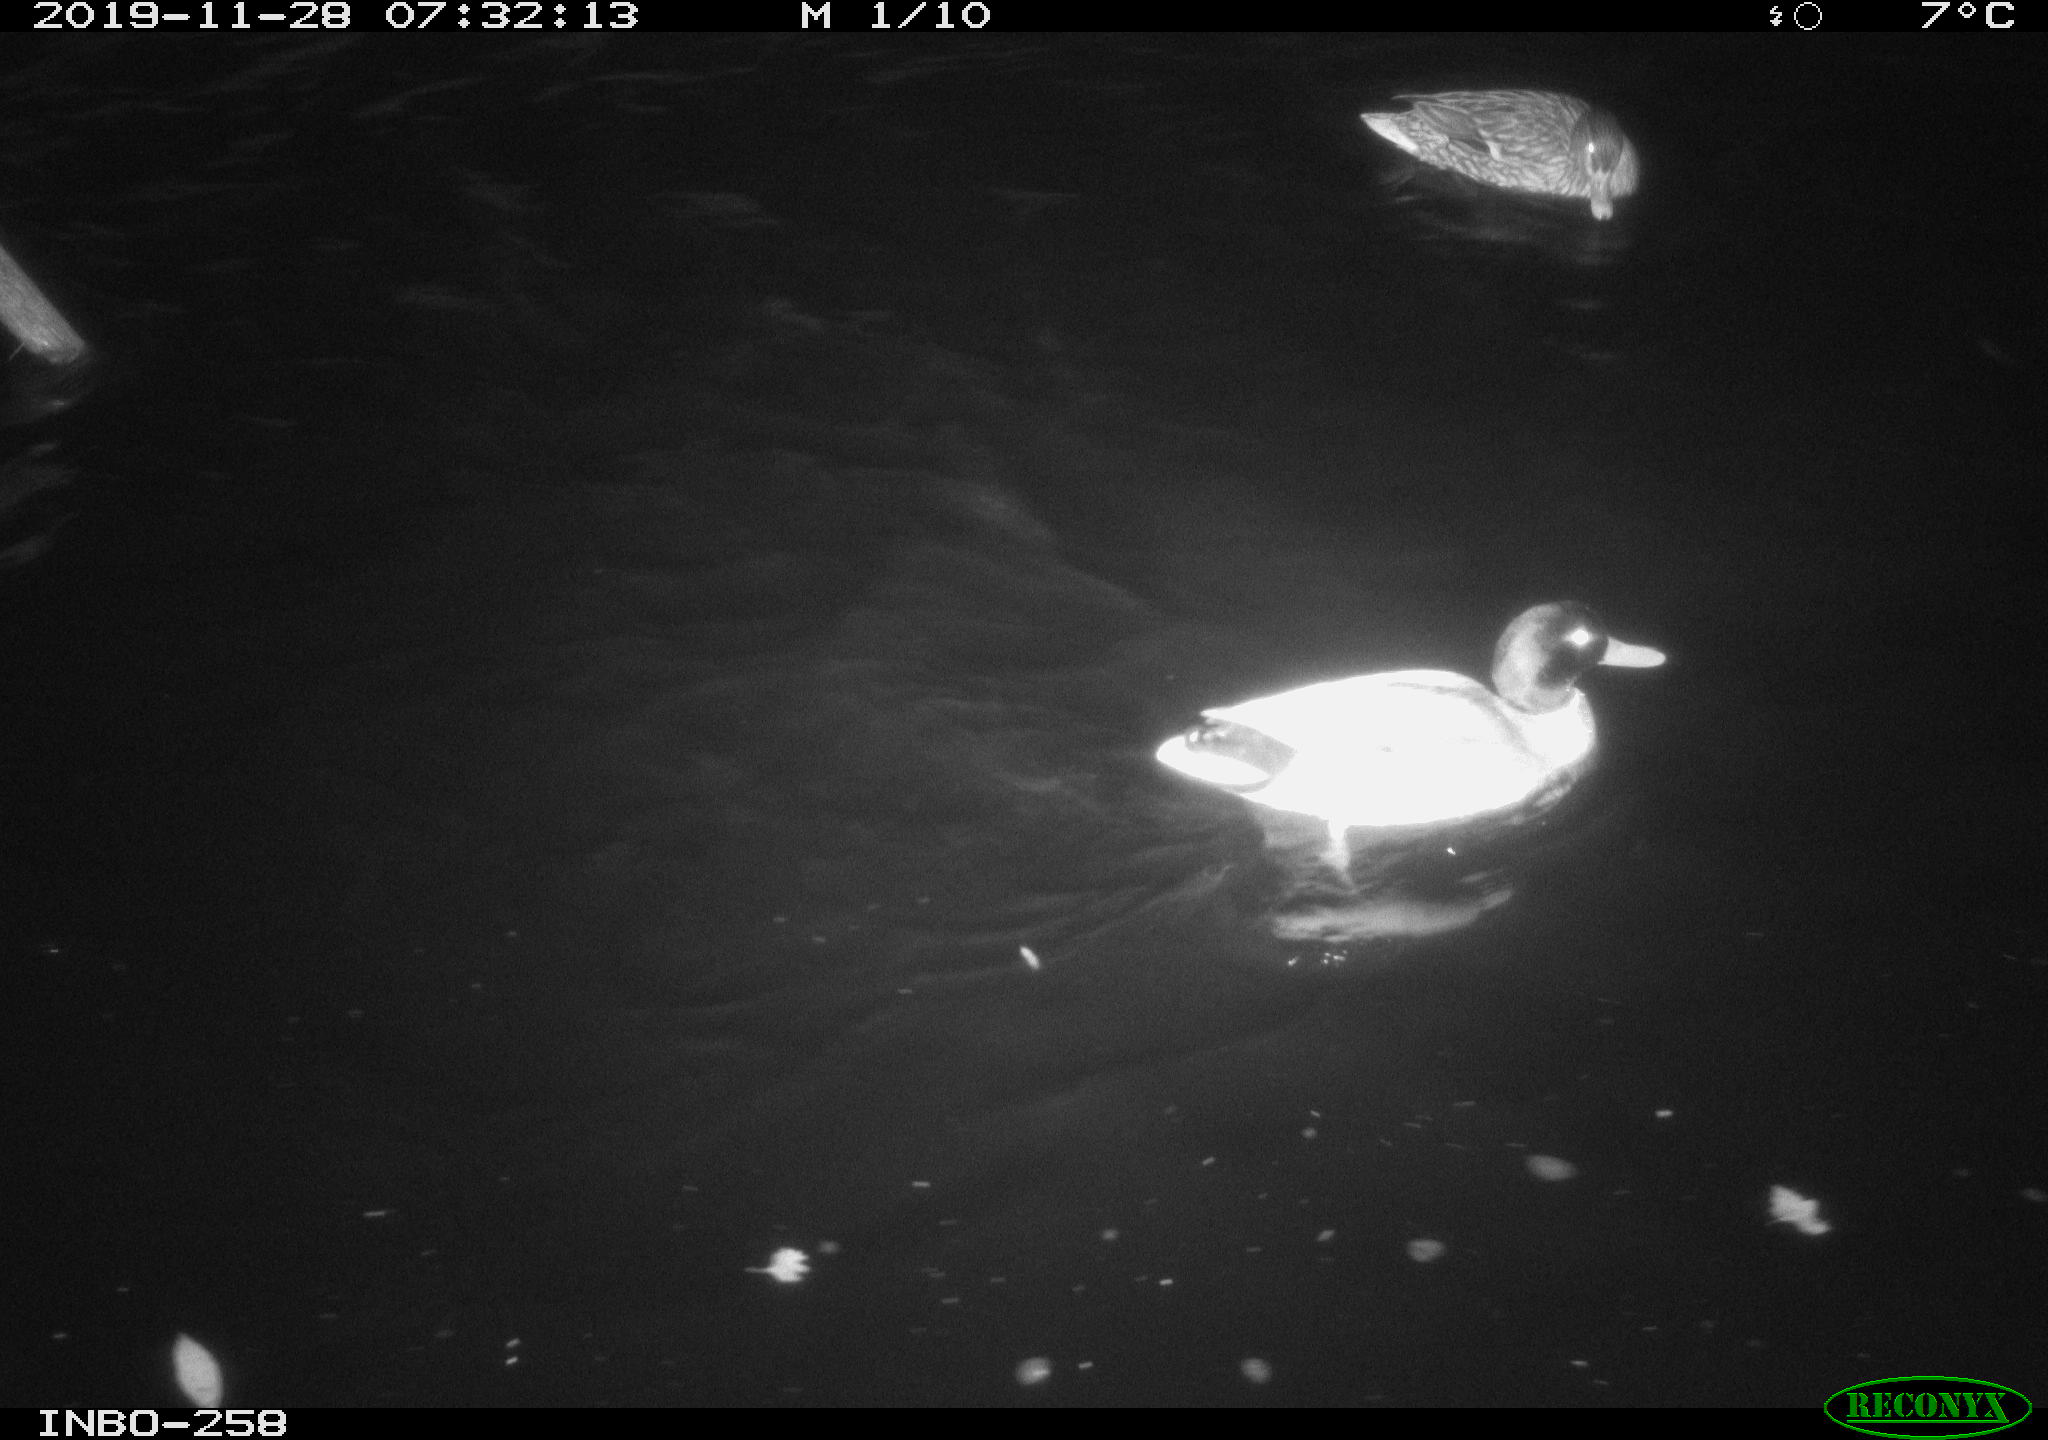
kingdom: Animalia
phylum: Chordata
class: Aves
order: Anseriformes
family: Anatidae
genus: Anas
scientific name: Anas platyrhynchos
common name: Mallard
